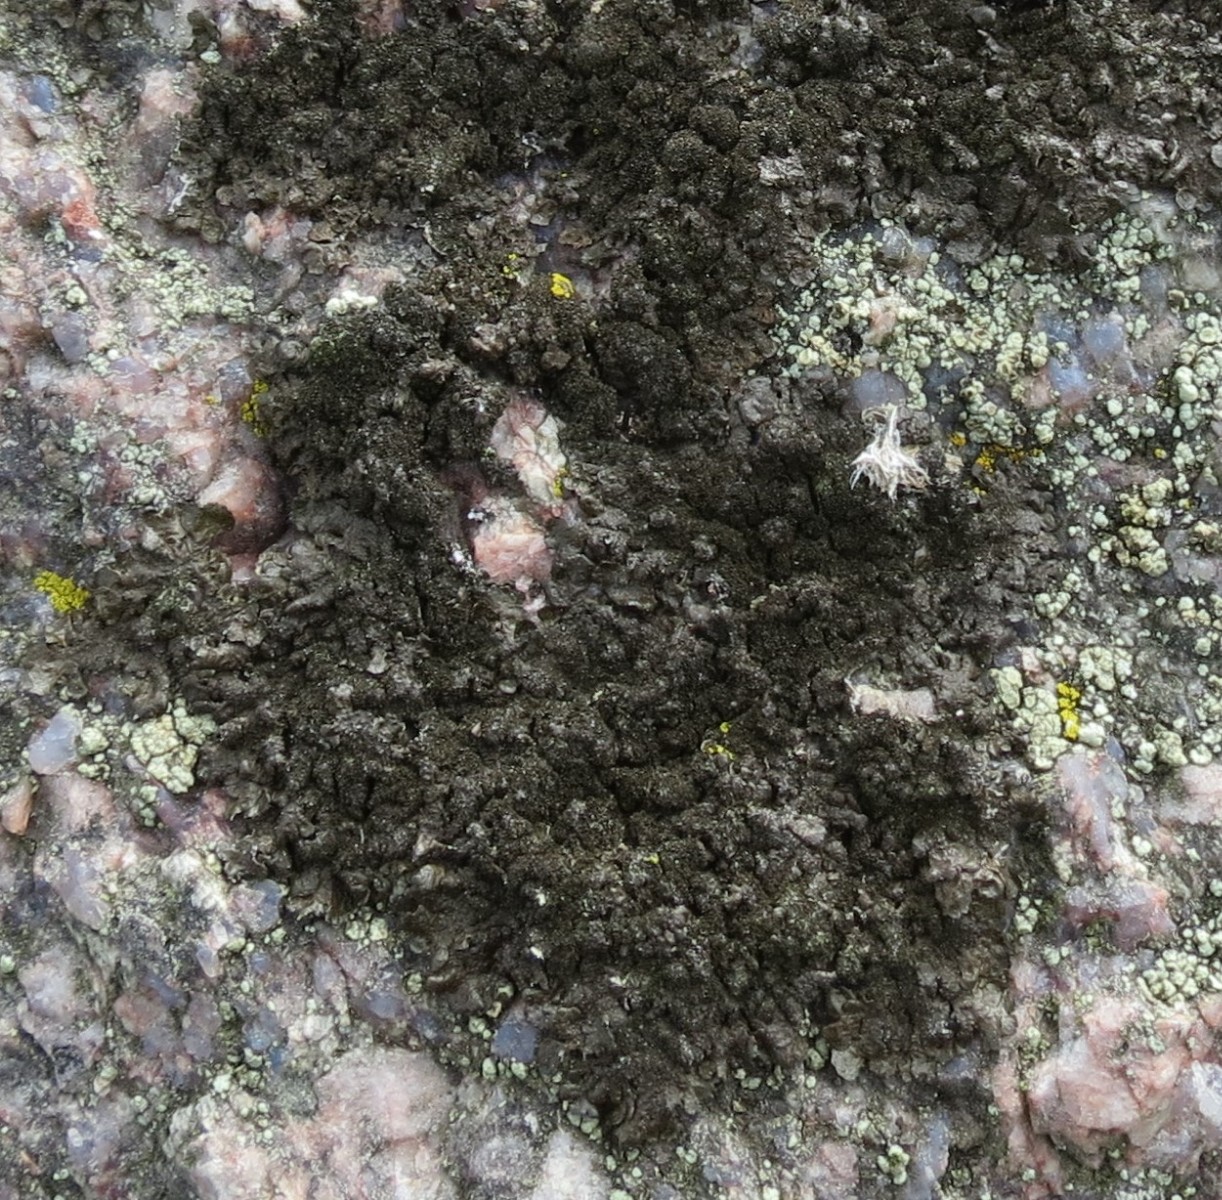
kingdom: Fungi
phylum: Ascomycota
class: Lecanoromycetes
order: Lecanorales
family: Parmeliaceae
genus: Melanelixia
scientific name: Melanelixia fuliginosa
